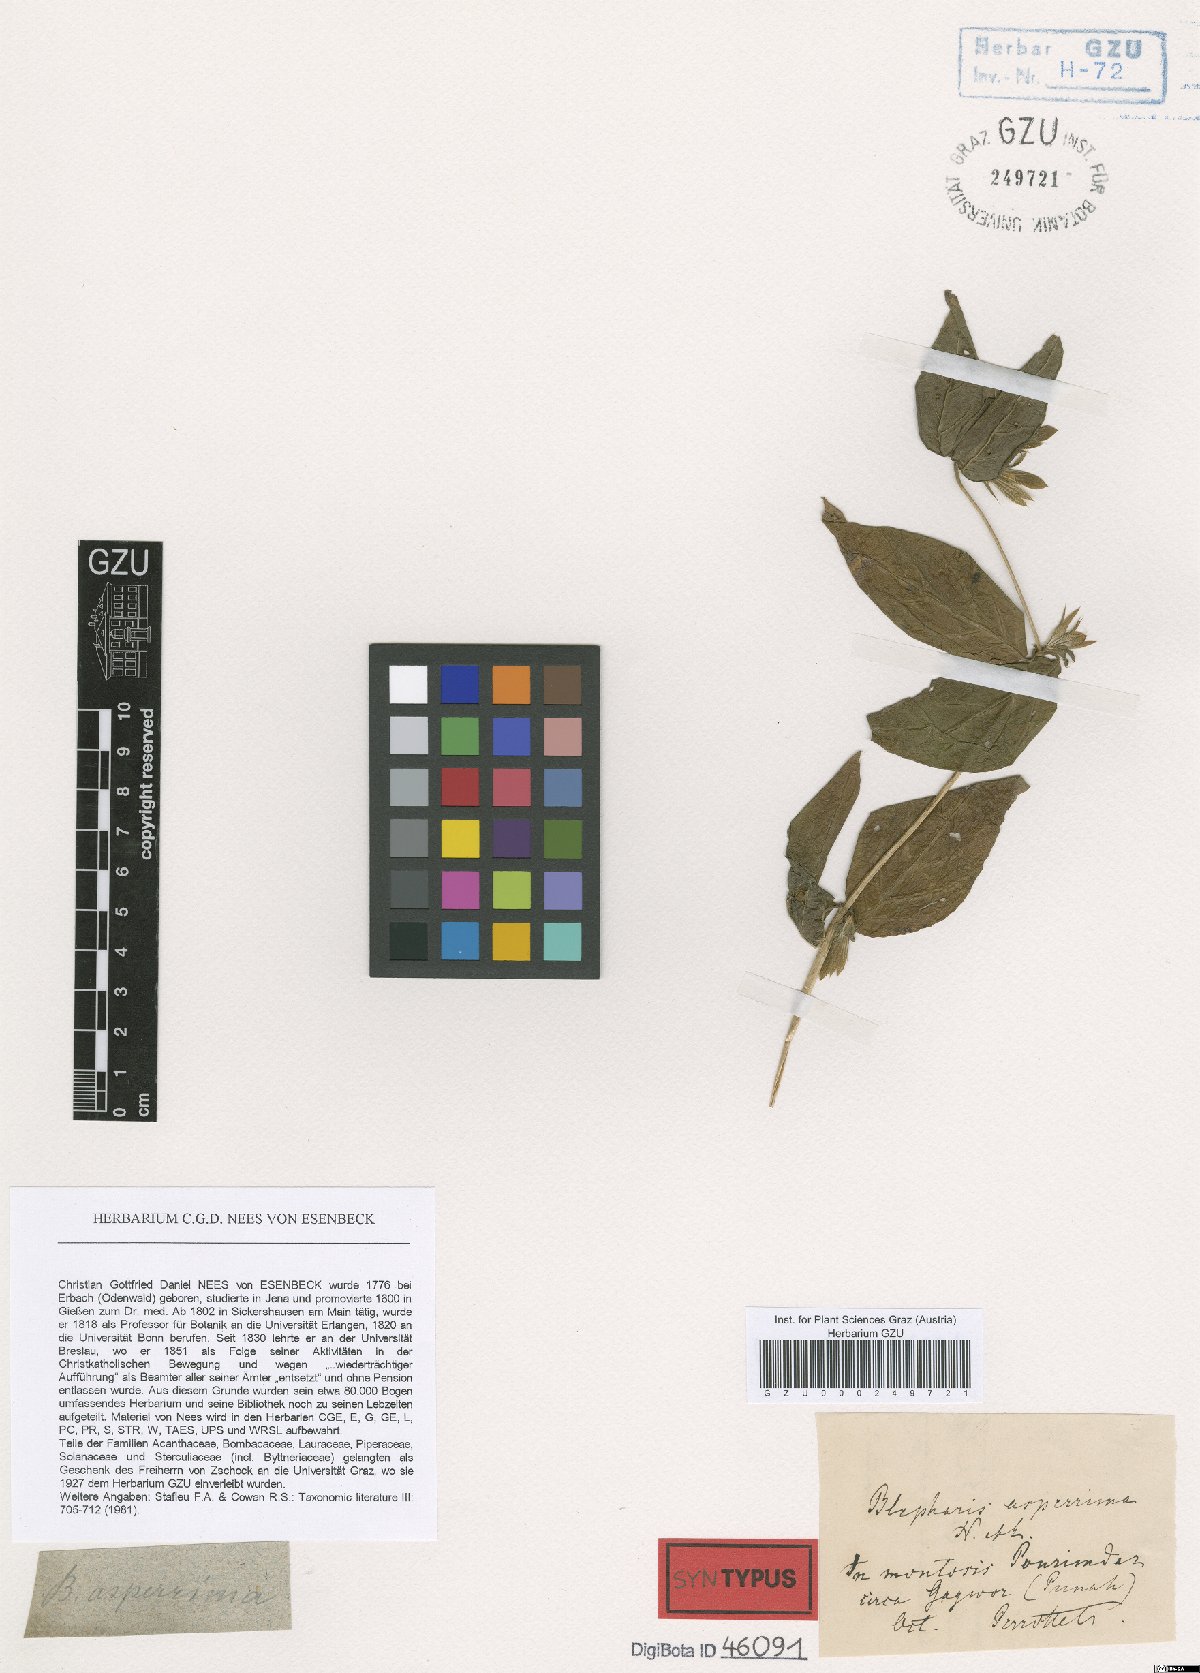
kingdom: Plantae
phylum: Tracheophyta
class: Magnoliopsida
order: Lamiales
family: Acanthaceae
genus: Cynarospermum
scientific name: Cynarospermum asperrimum
